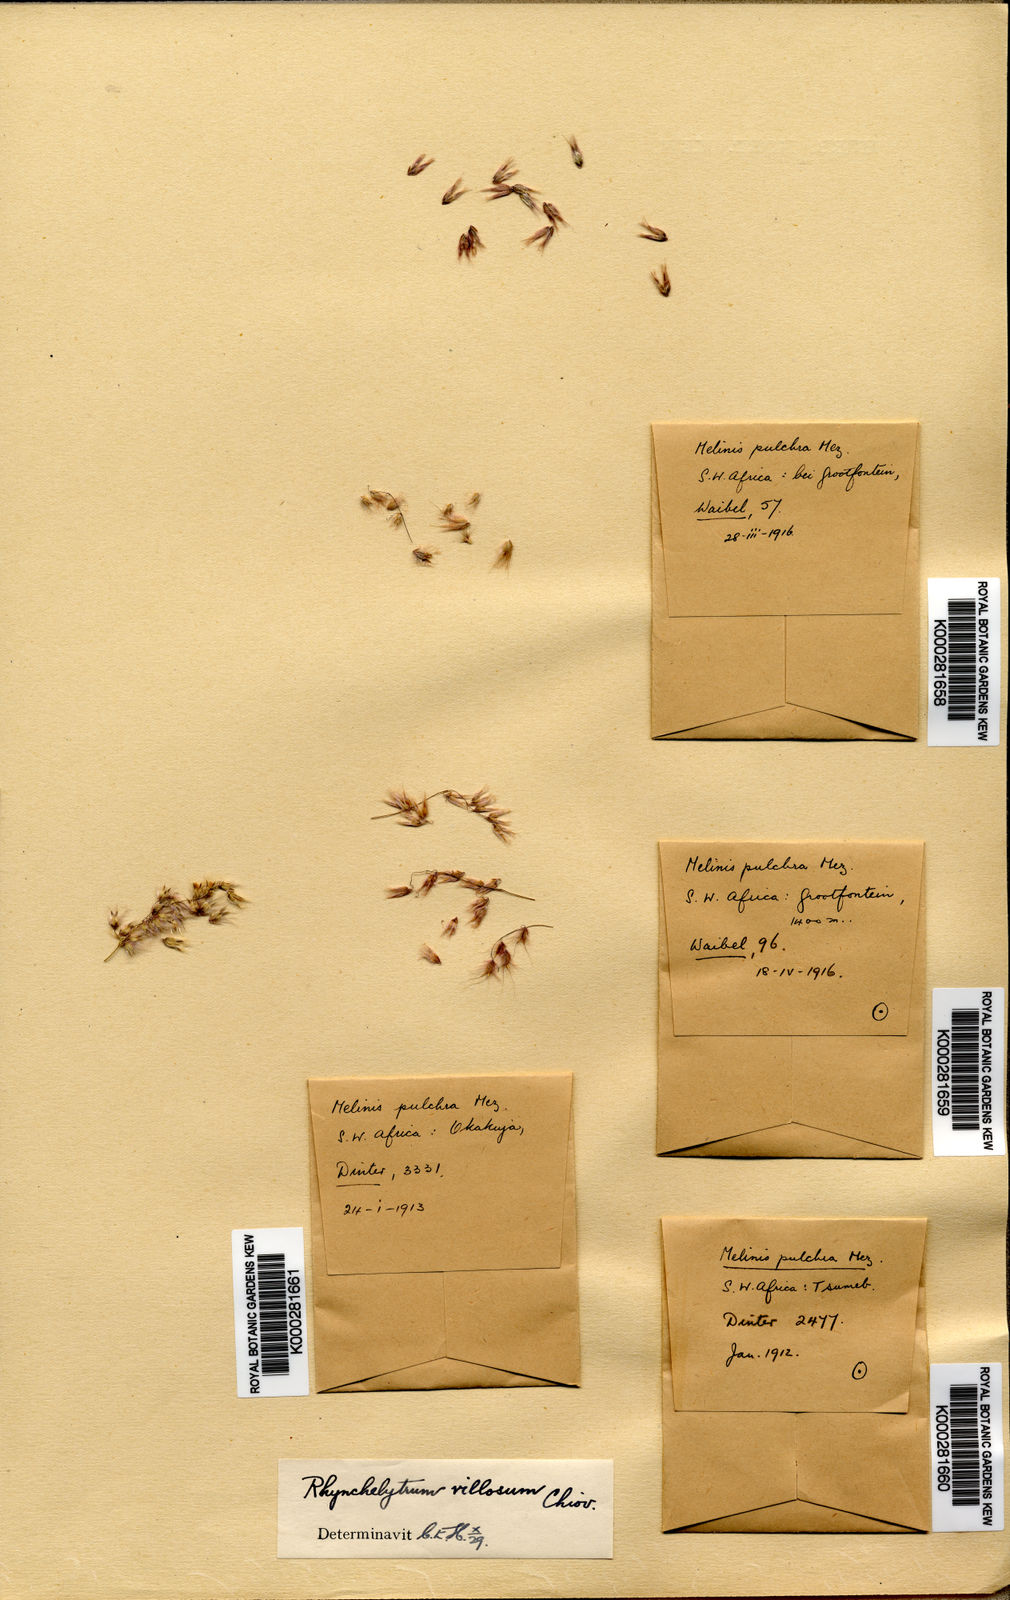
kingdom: Plantae
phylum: Tracheophyta
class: Liliopsida
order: Poales
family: Poaceae
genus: Melinis
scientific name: Melinis repens
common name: Rose natal grass
